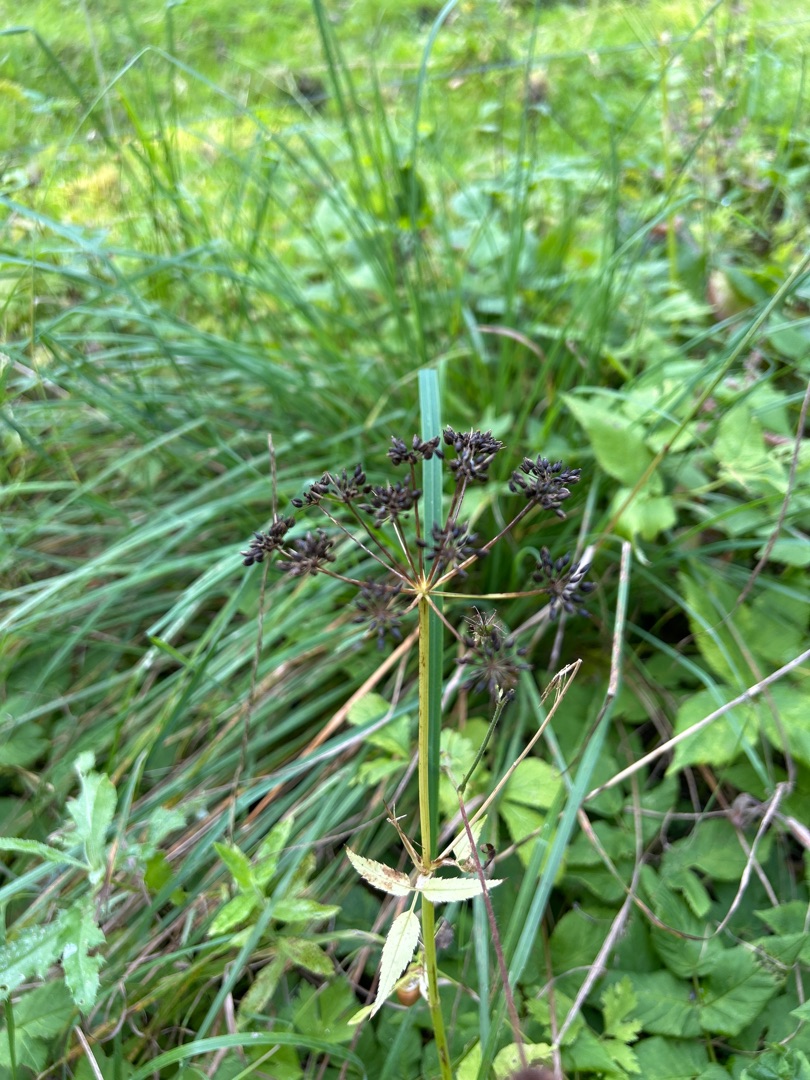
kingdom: Plantae
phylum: Tracheophyta
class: Magnoliopsida
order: Apiales
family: Apiaceae
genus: Aegopodium
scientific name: Aegopodium podagraria
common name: Skvalderkål
